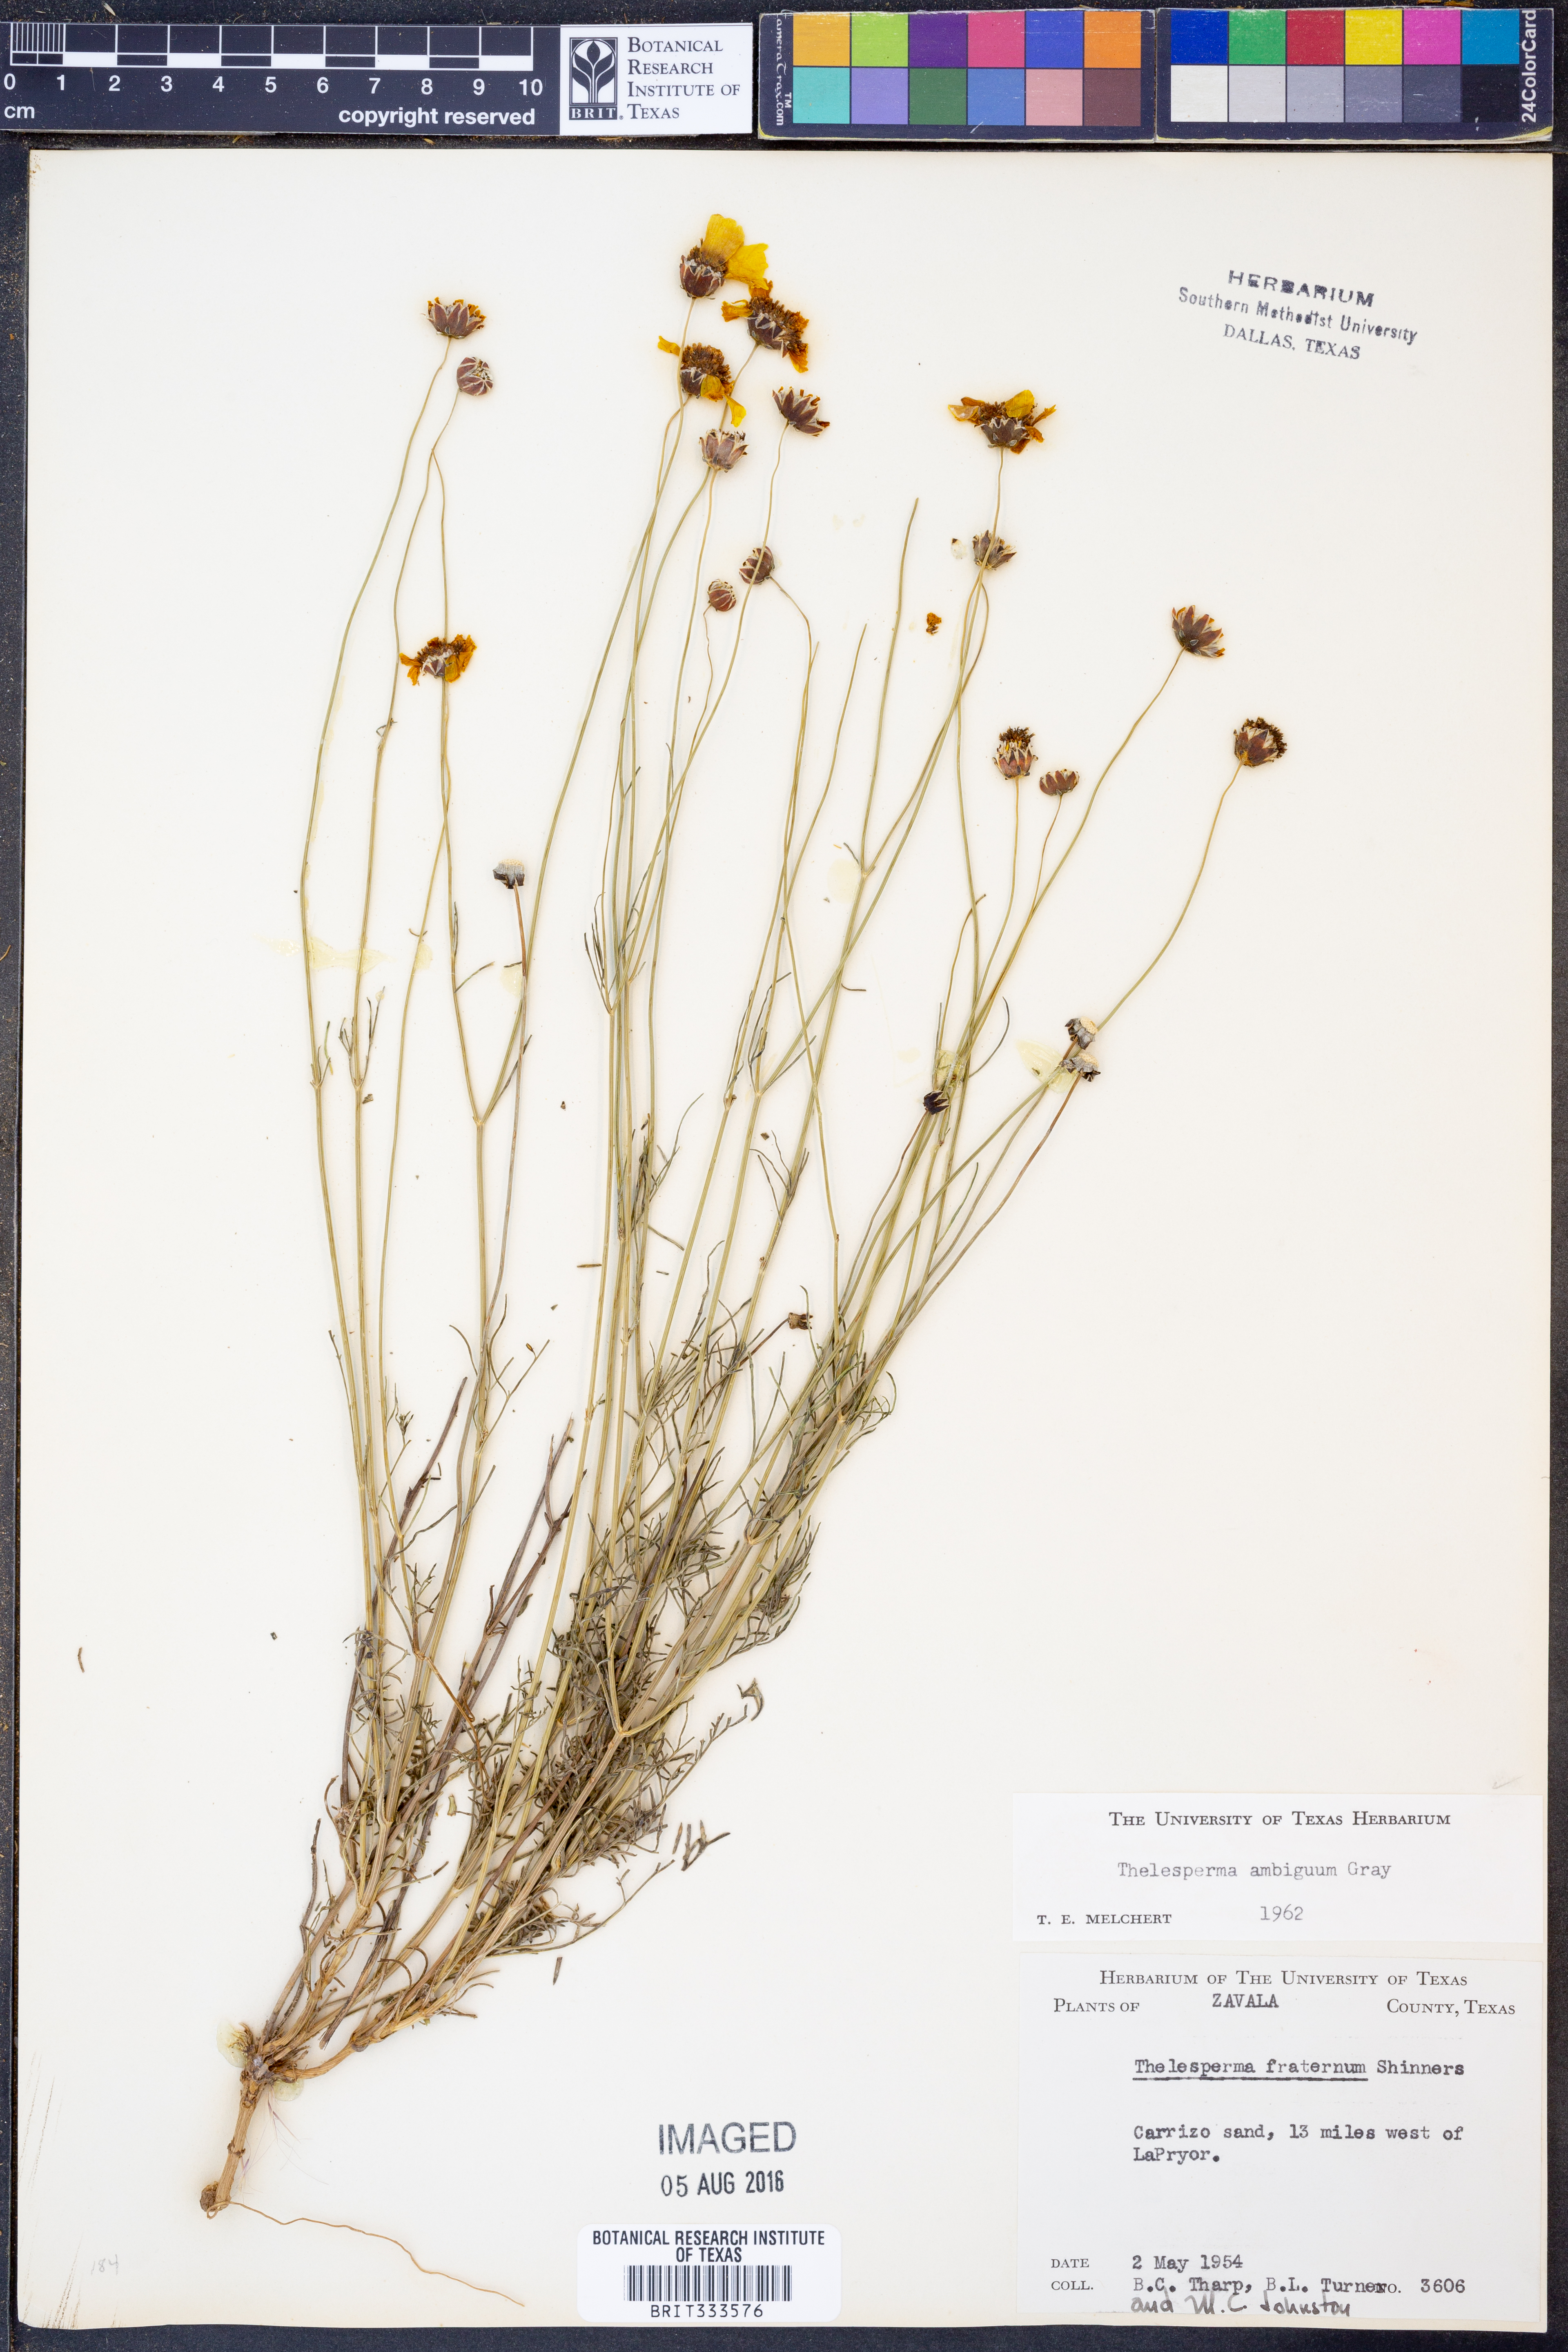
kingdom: Plantae
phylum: Tracheophyta
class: Magnoliopsida
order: Asterales
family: Asteraceae
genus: Thelesperma
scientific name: Thelesperma ambiguum
